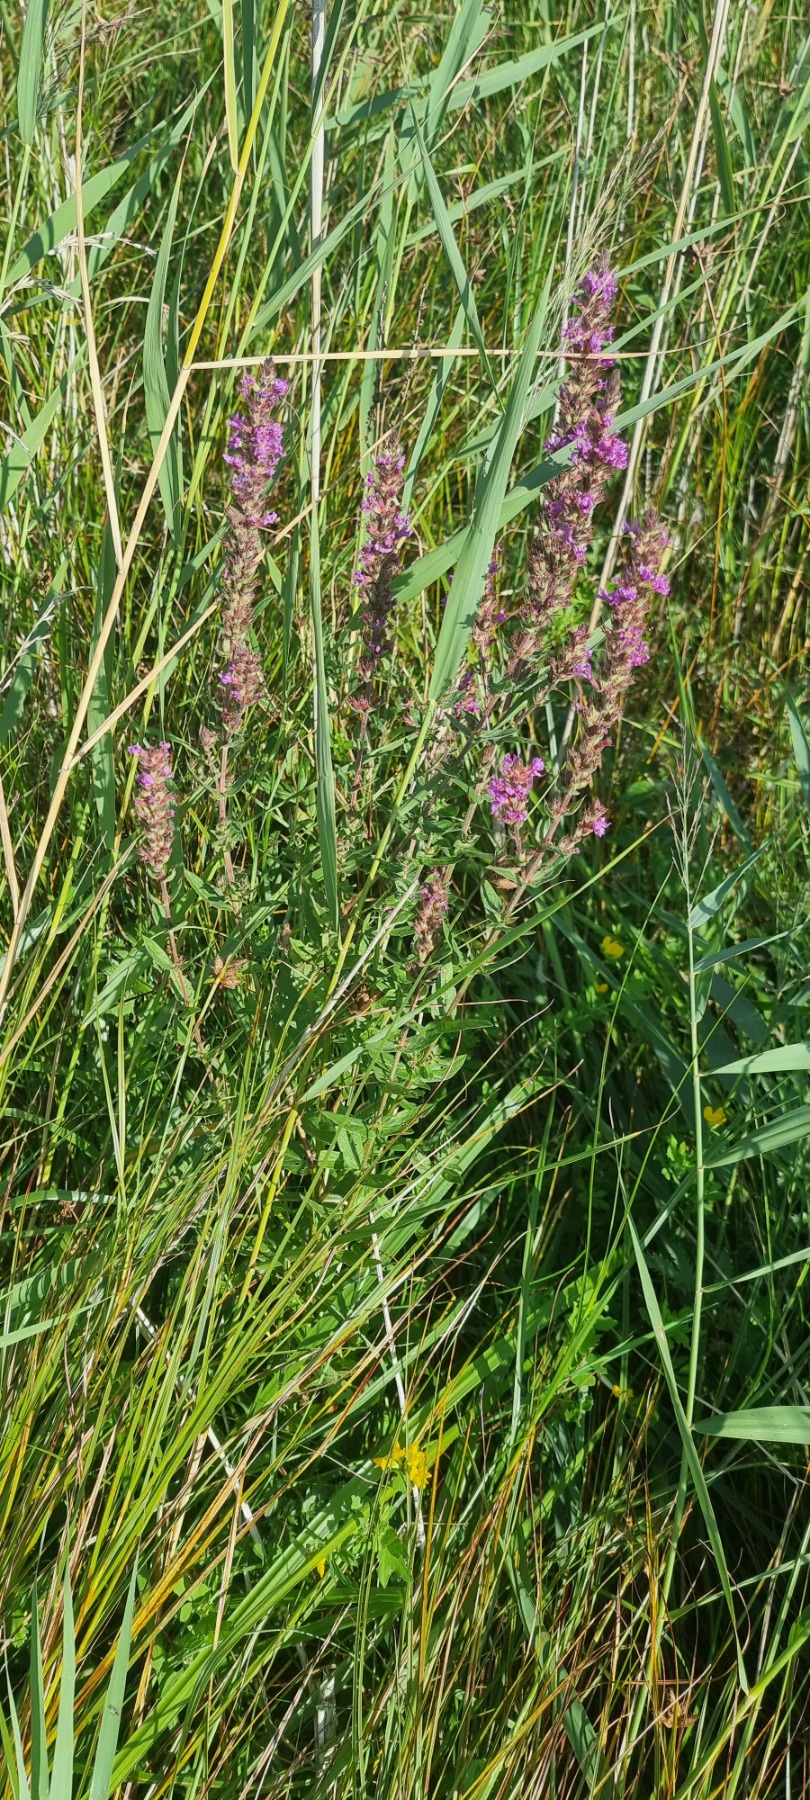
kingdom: Plantae
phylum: Tracheophyta
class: Magnoliopsida
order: Myrtales
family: Lythraceae
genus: Lythrum
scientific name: Lythrum salicaria
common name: Kattehale
